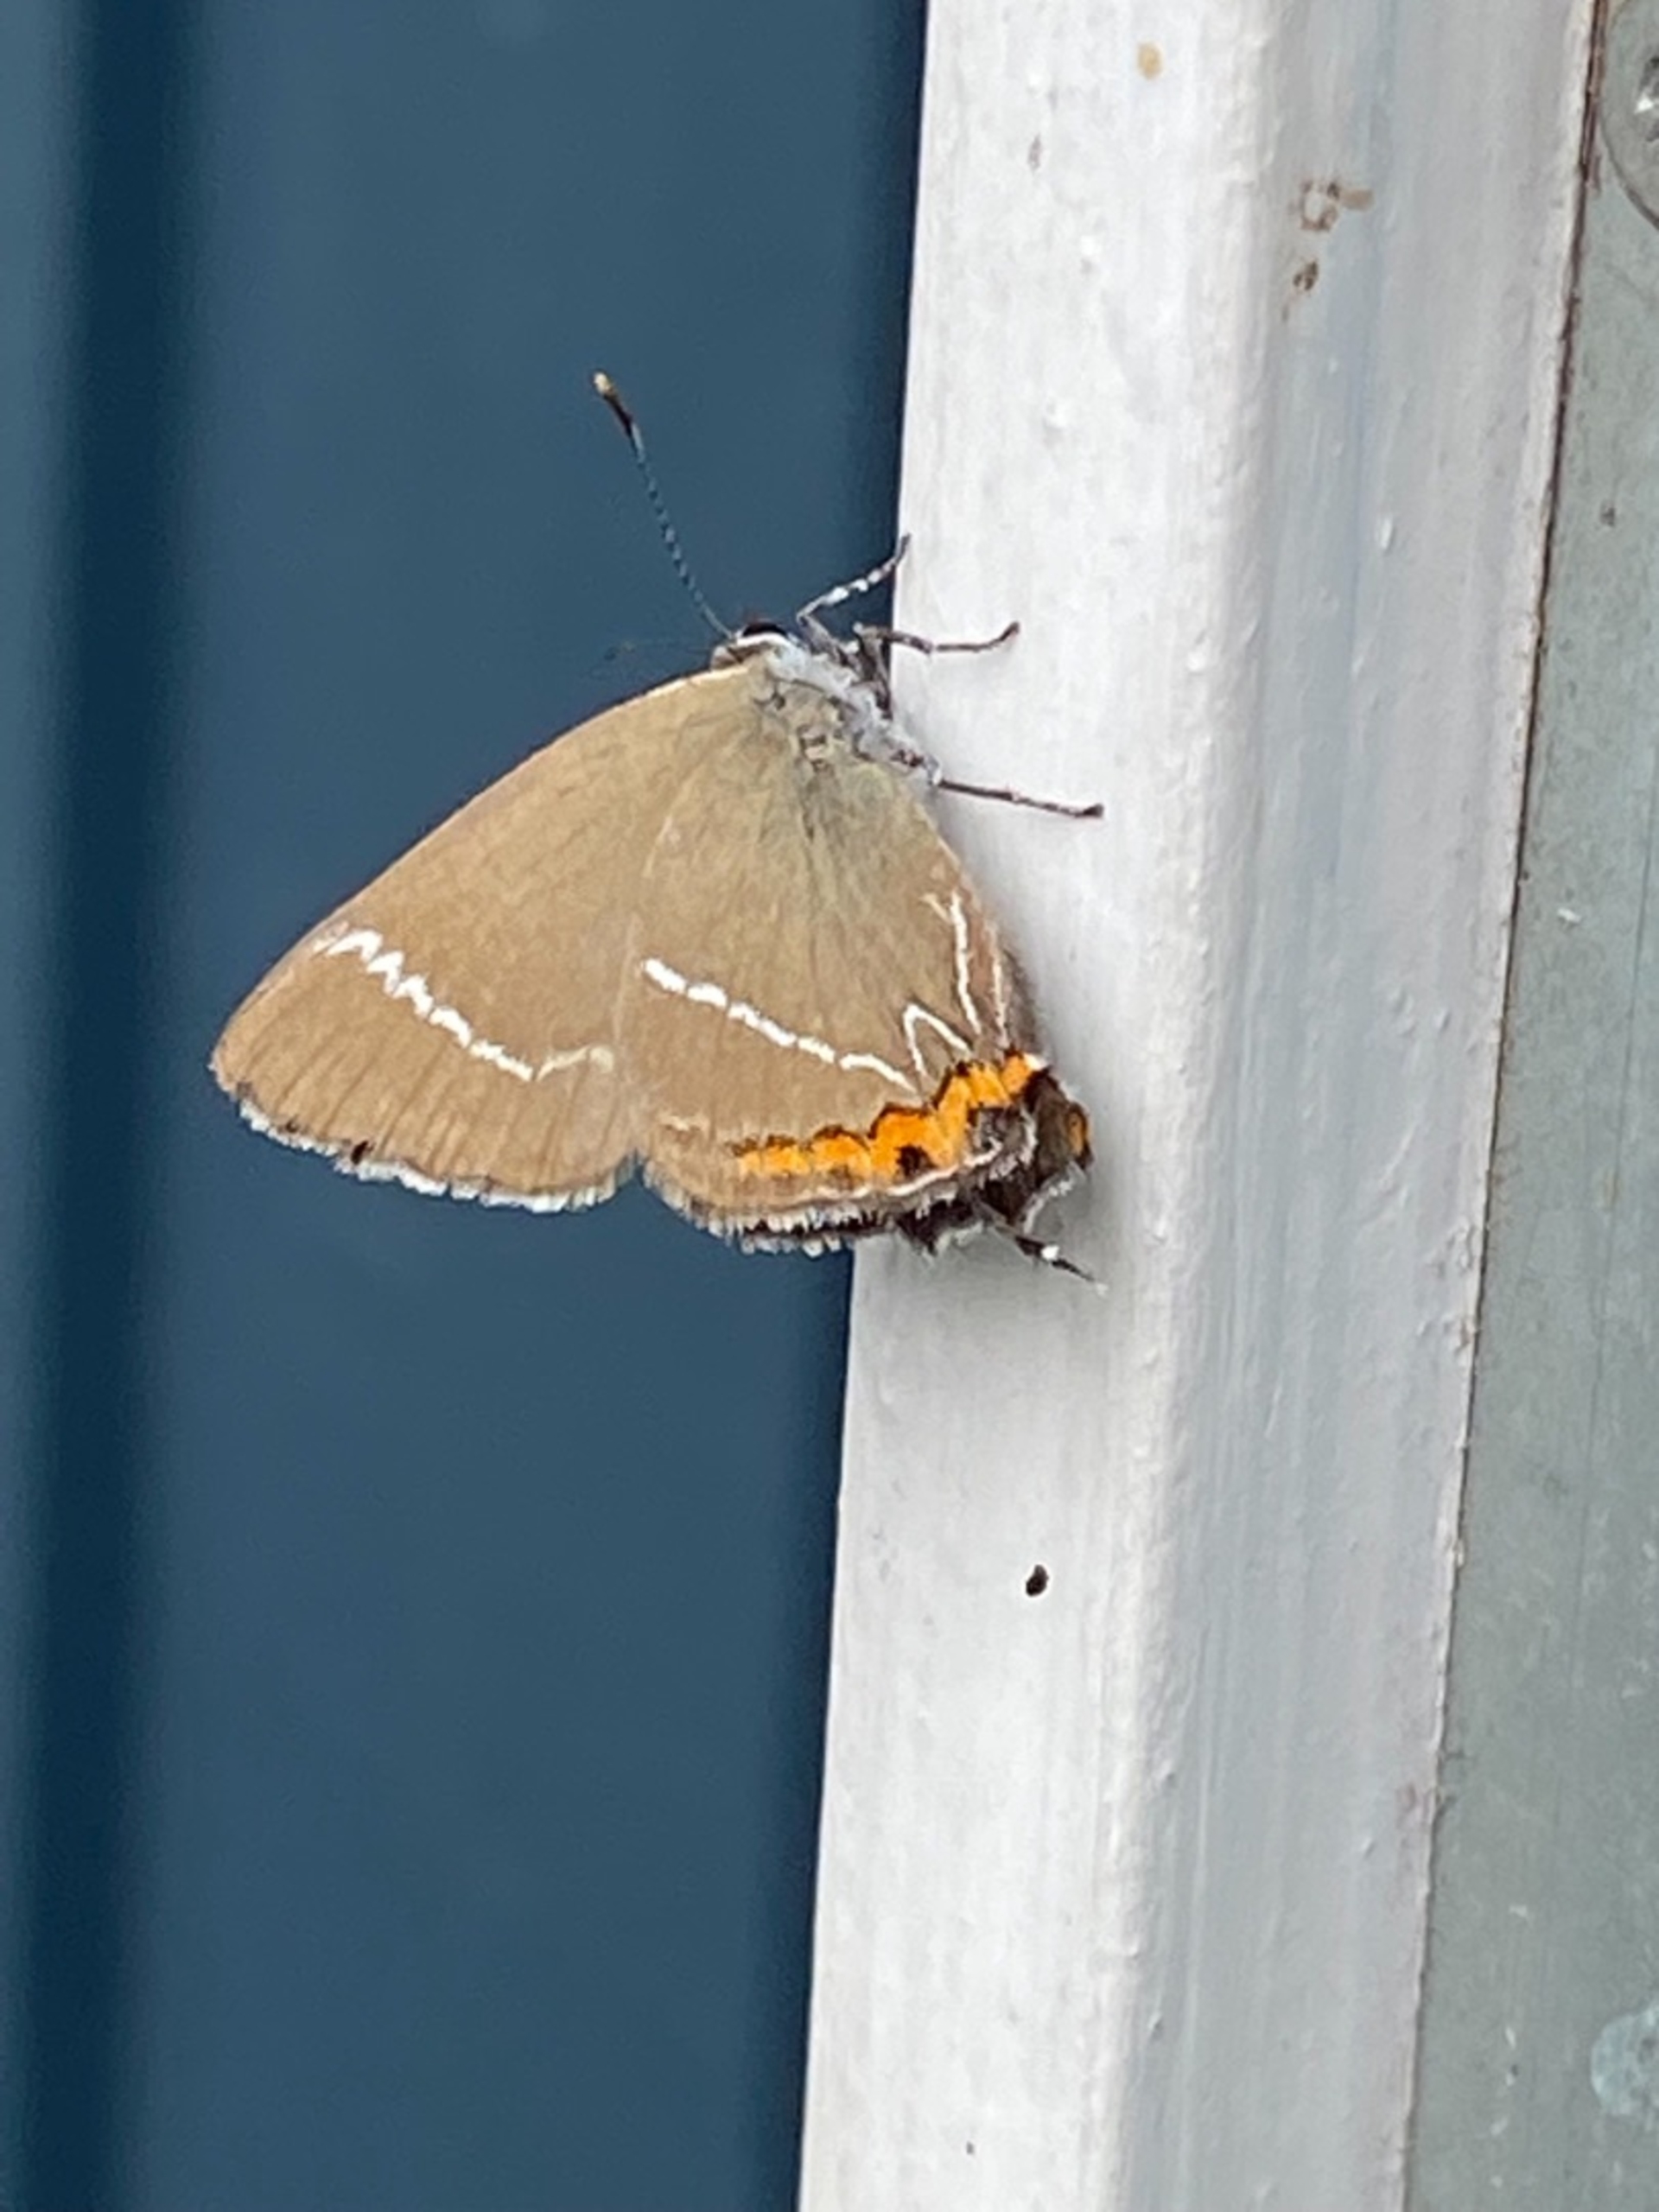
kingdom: Animalia
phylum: Arthropoda
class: Insecta
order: Lepidoptera
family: Lycaenidae
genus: Satyrium
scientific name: Satyrium w-album
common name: Det hvide W
